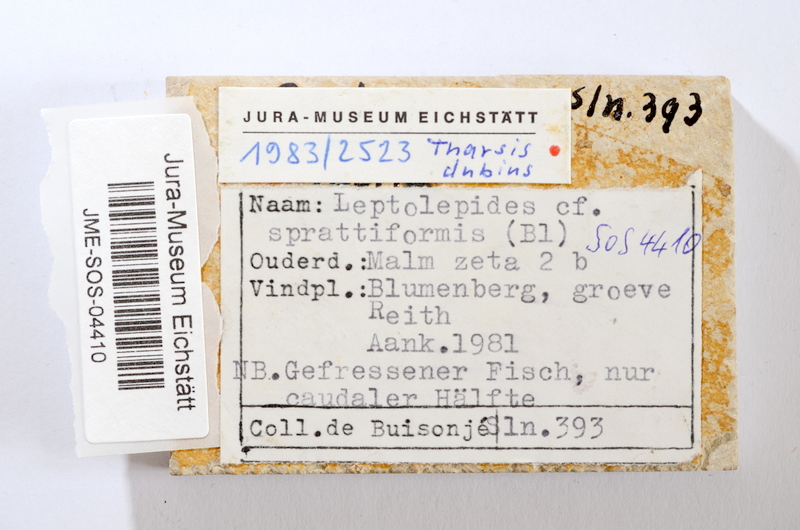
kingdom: Animalia
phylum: Chordata
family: Ascalaboidae
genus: Tharsis
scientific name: Tharsis dubius
